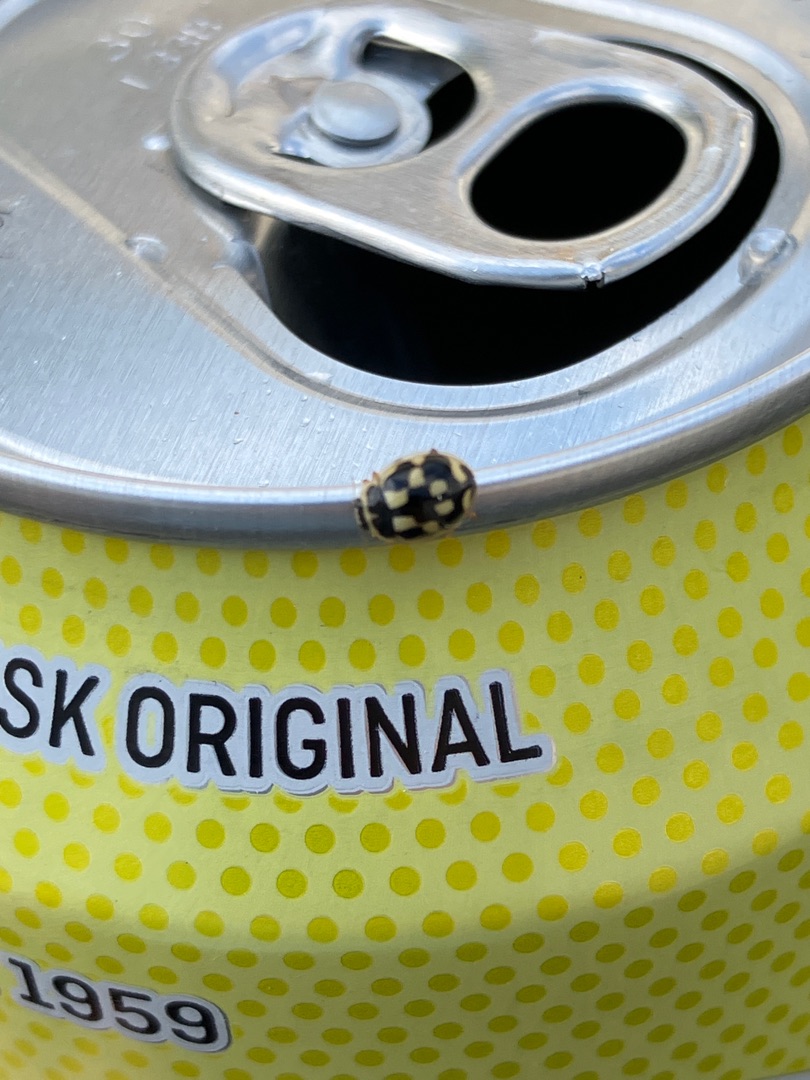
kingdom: Animalia
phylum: Arthropoda
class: Insecta
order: Coleoptera
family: Coccinellidae
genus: Propylaea
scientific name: Propylaea quatuordecimpunctata
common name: Skakbræt
